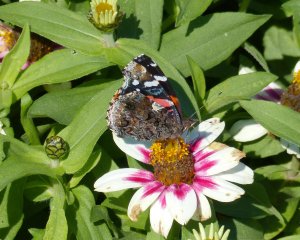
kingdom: Animalia
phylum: Arthropoda
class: Insecta
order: Lepidoptera
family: Nymphalidae
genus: Vanessa
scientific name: Vanessa atalanta
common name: Red Admiral
